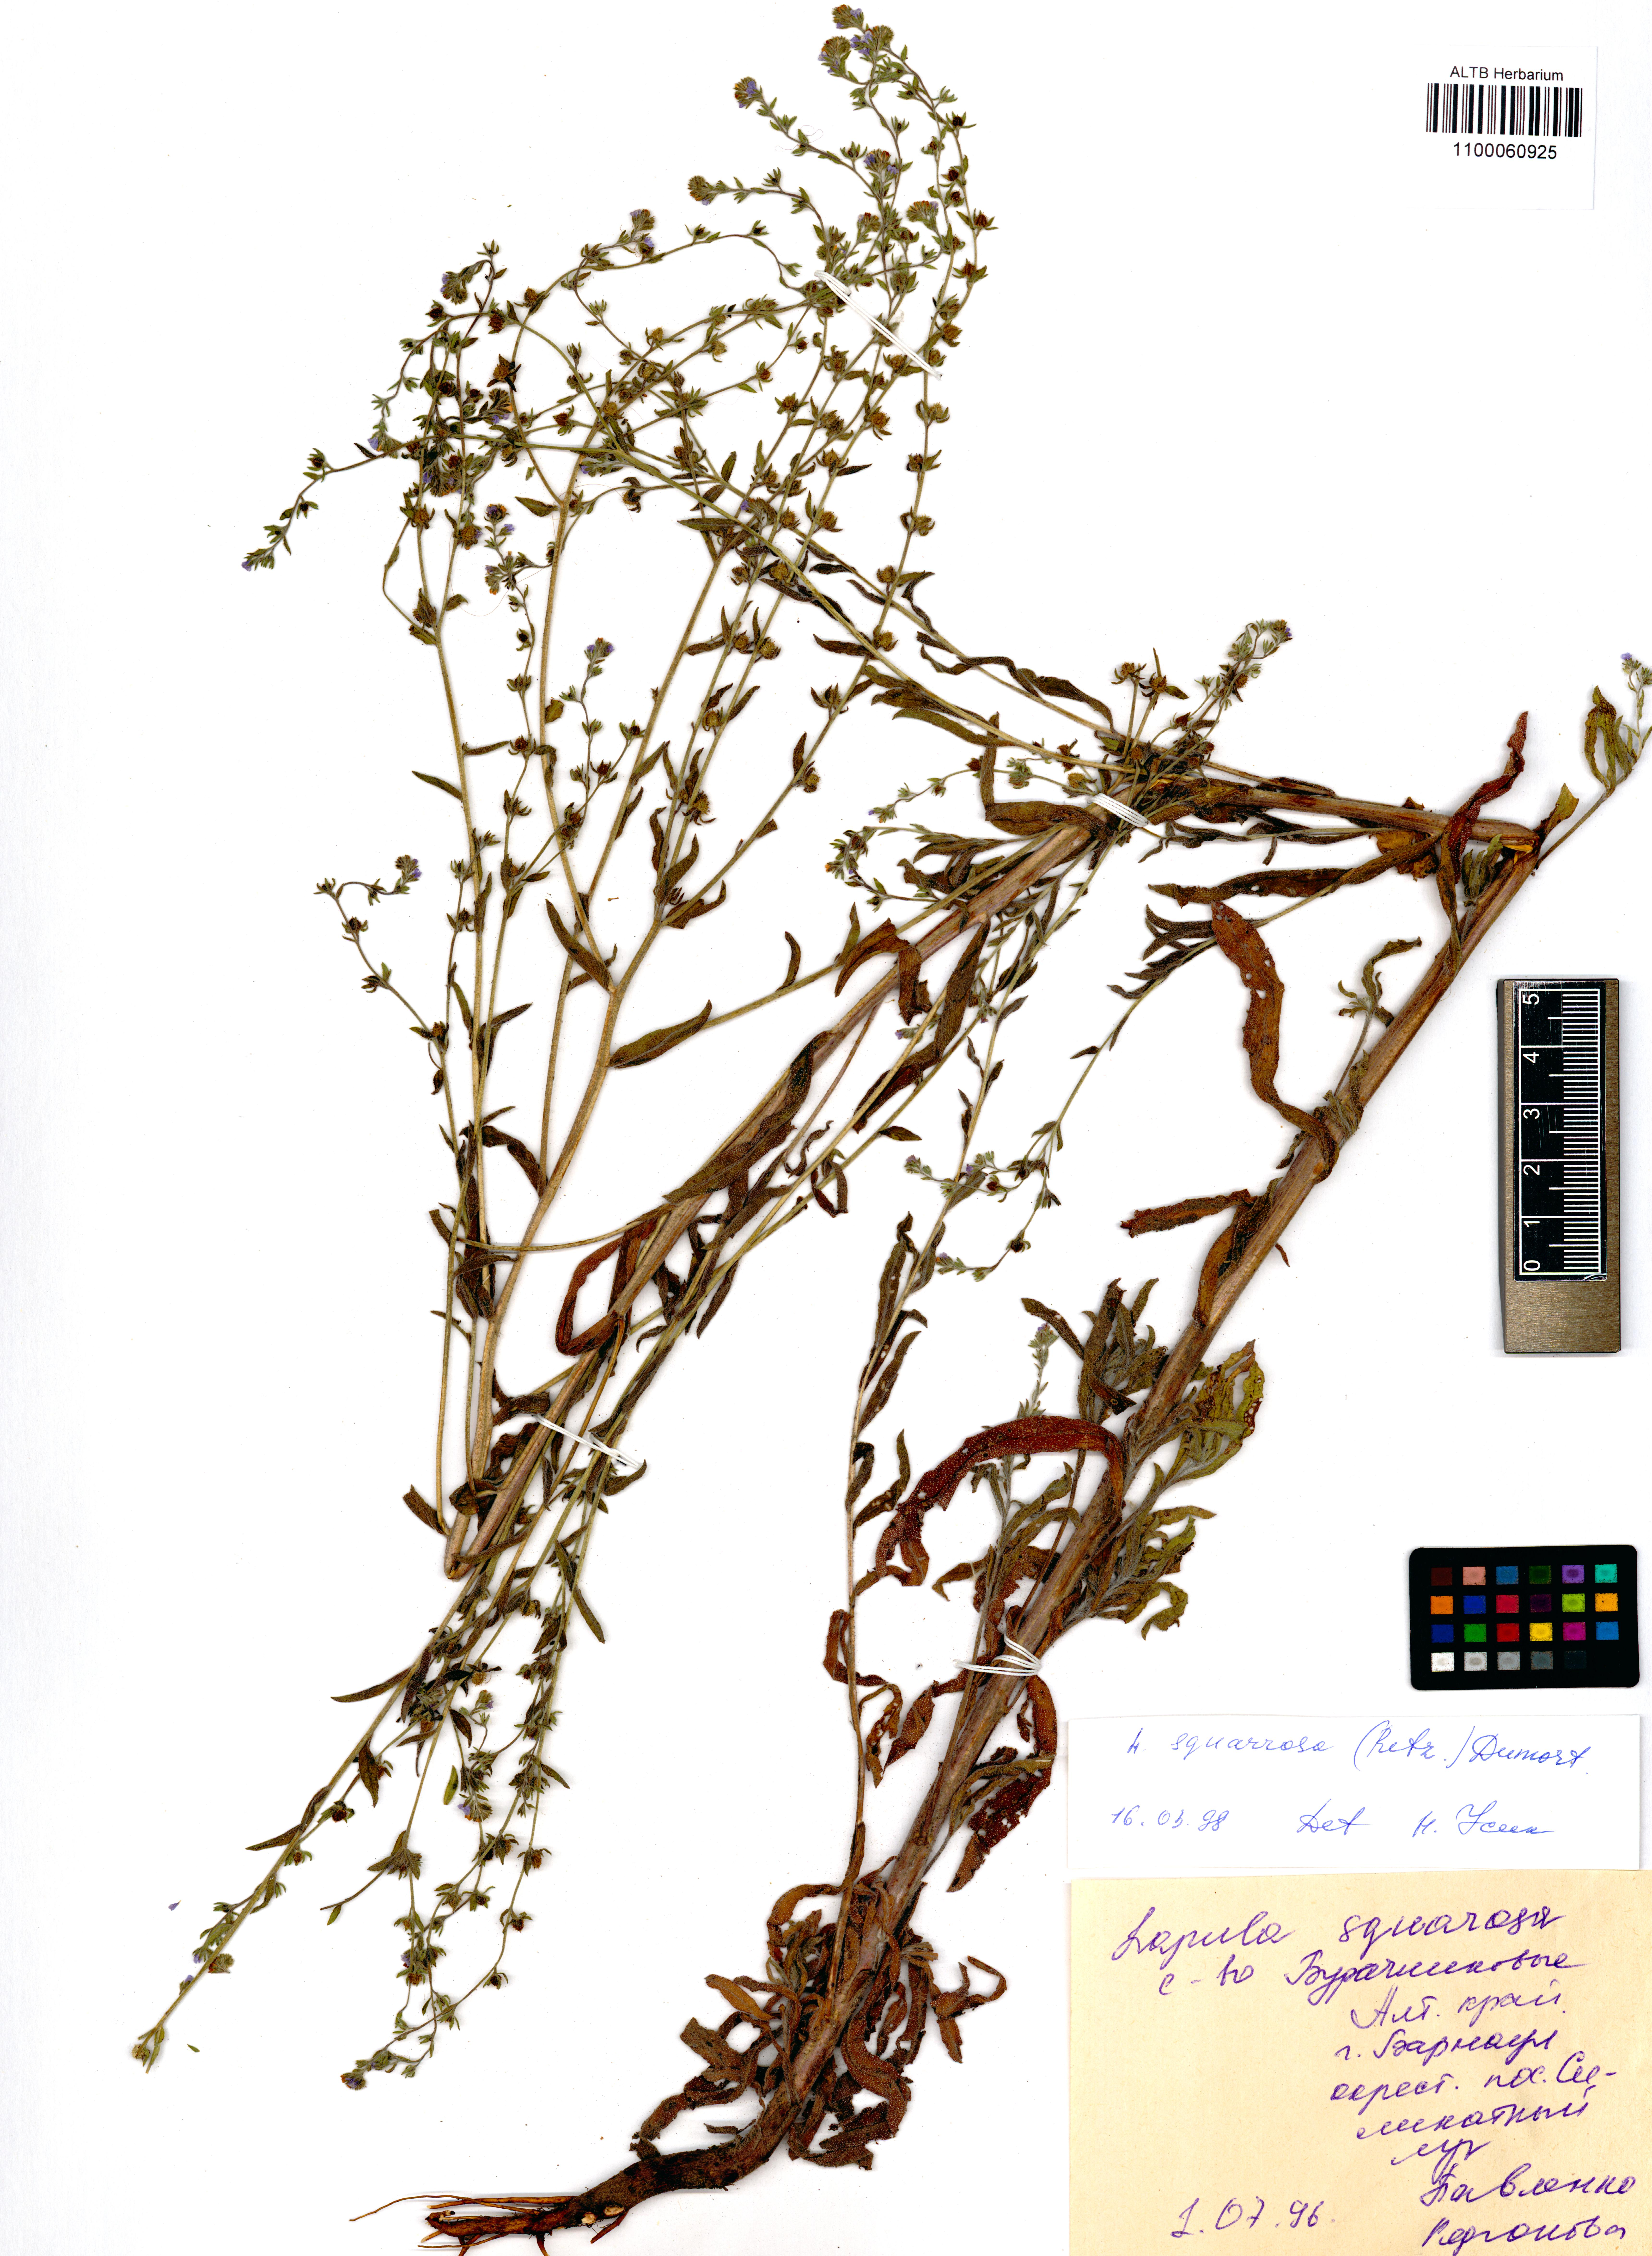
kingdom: Plantae
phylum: Tracheophyta
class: Magnoliopsida
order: Boraginales
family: Boraginaceae
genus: Lappula
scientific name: Lappula squarrosa
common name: European stickseed
